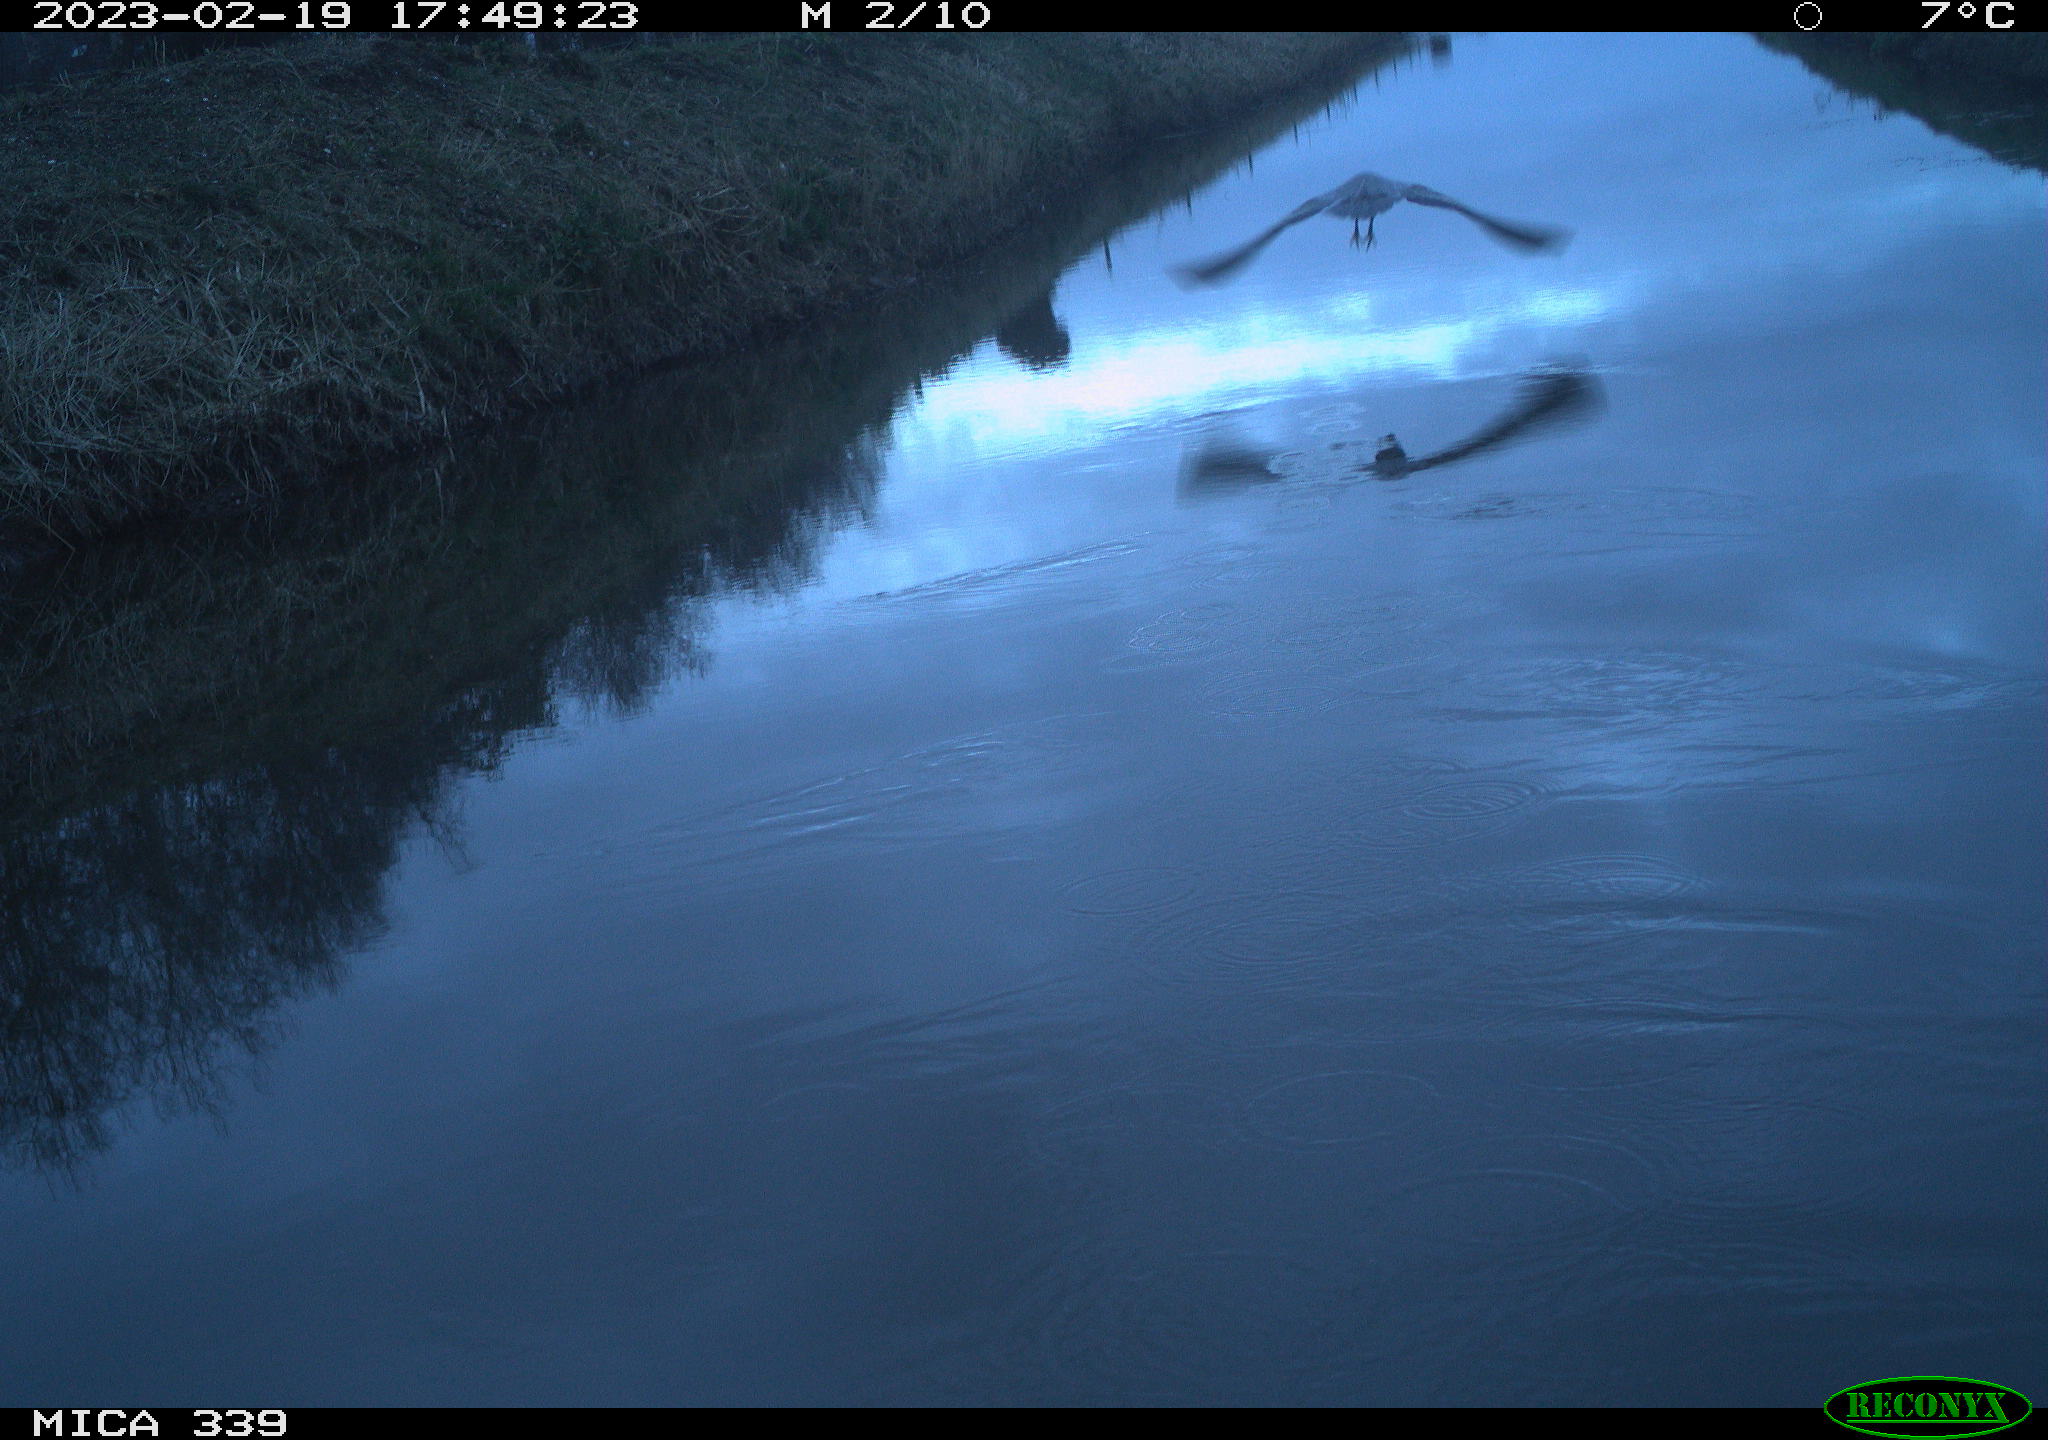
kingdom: Animalia
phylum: Chordata
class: Aves
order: Pelecaniformes
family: Ardeidae
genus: Ardea
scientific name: Ardea cinerea
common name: Grey heron
